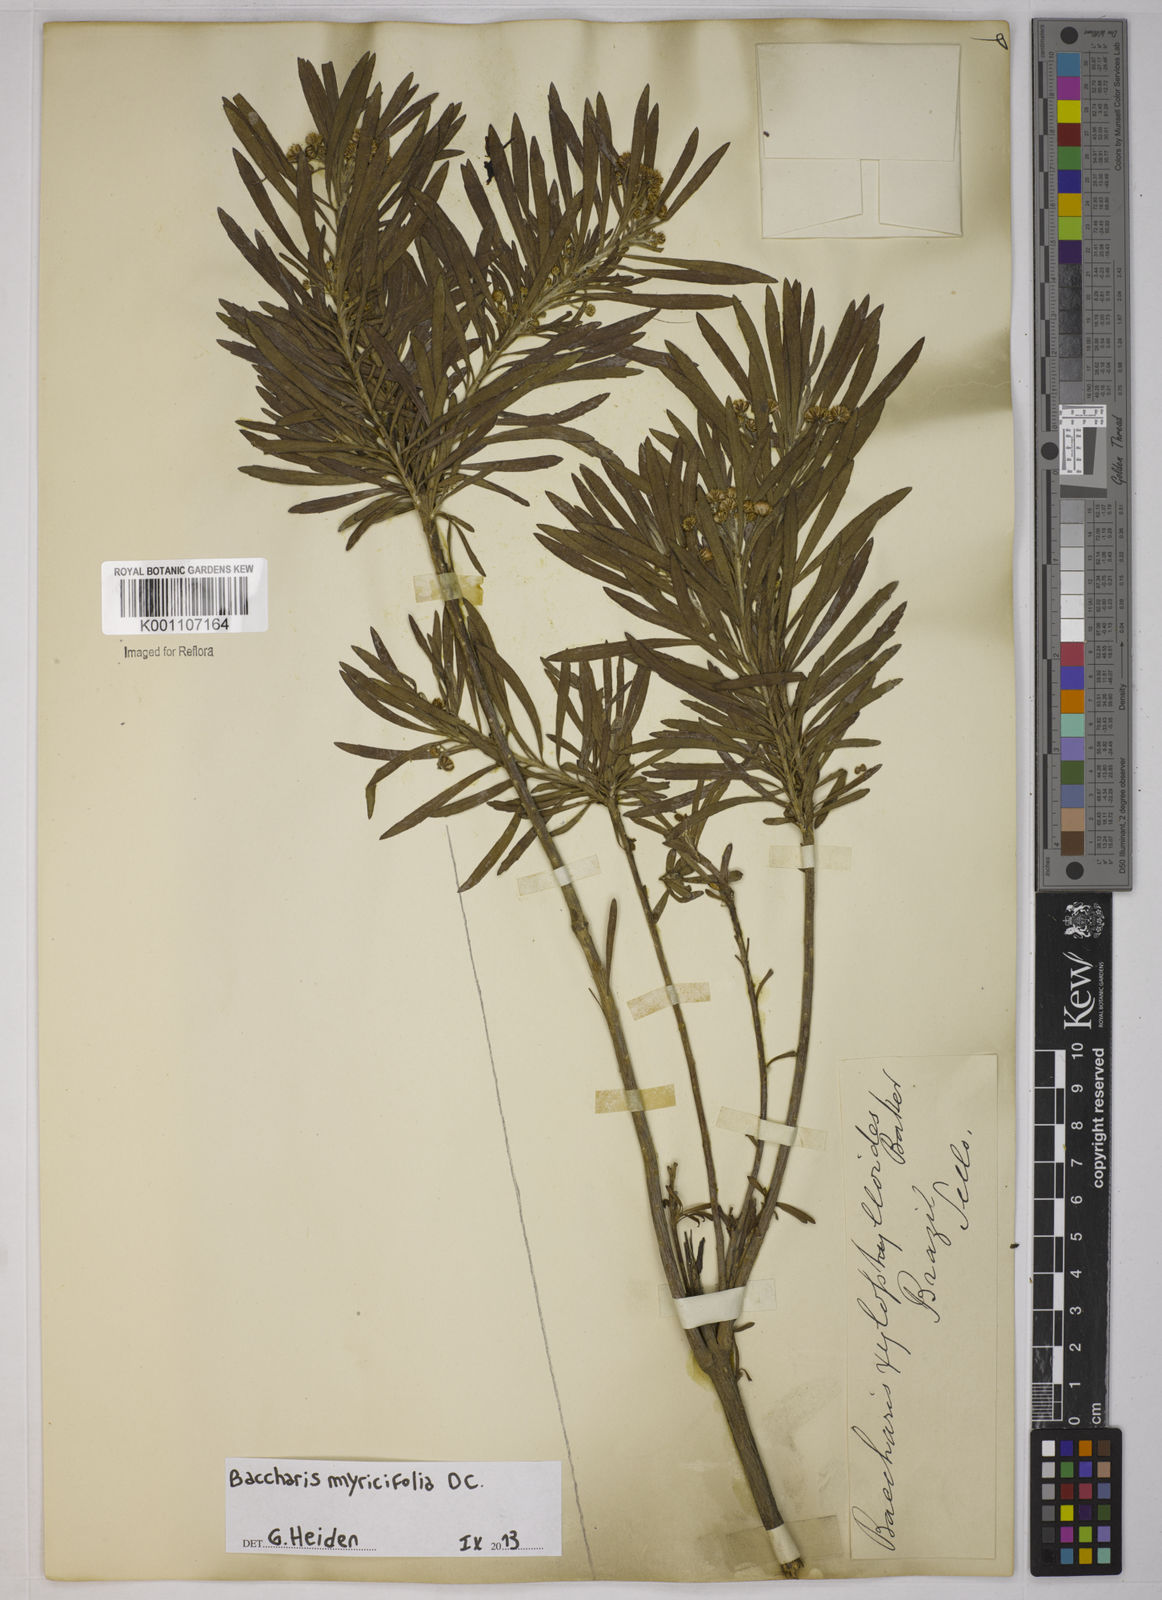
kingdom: Plantae
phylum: Tracheophyta
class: Magnoliopsida
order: Asterales
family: Asteraceae
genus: Baccharis
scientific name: Baccharis myricifolia
